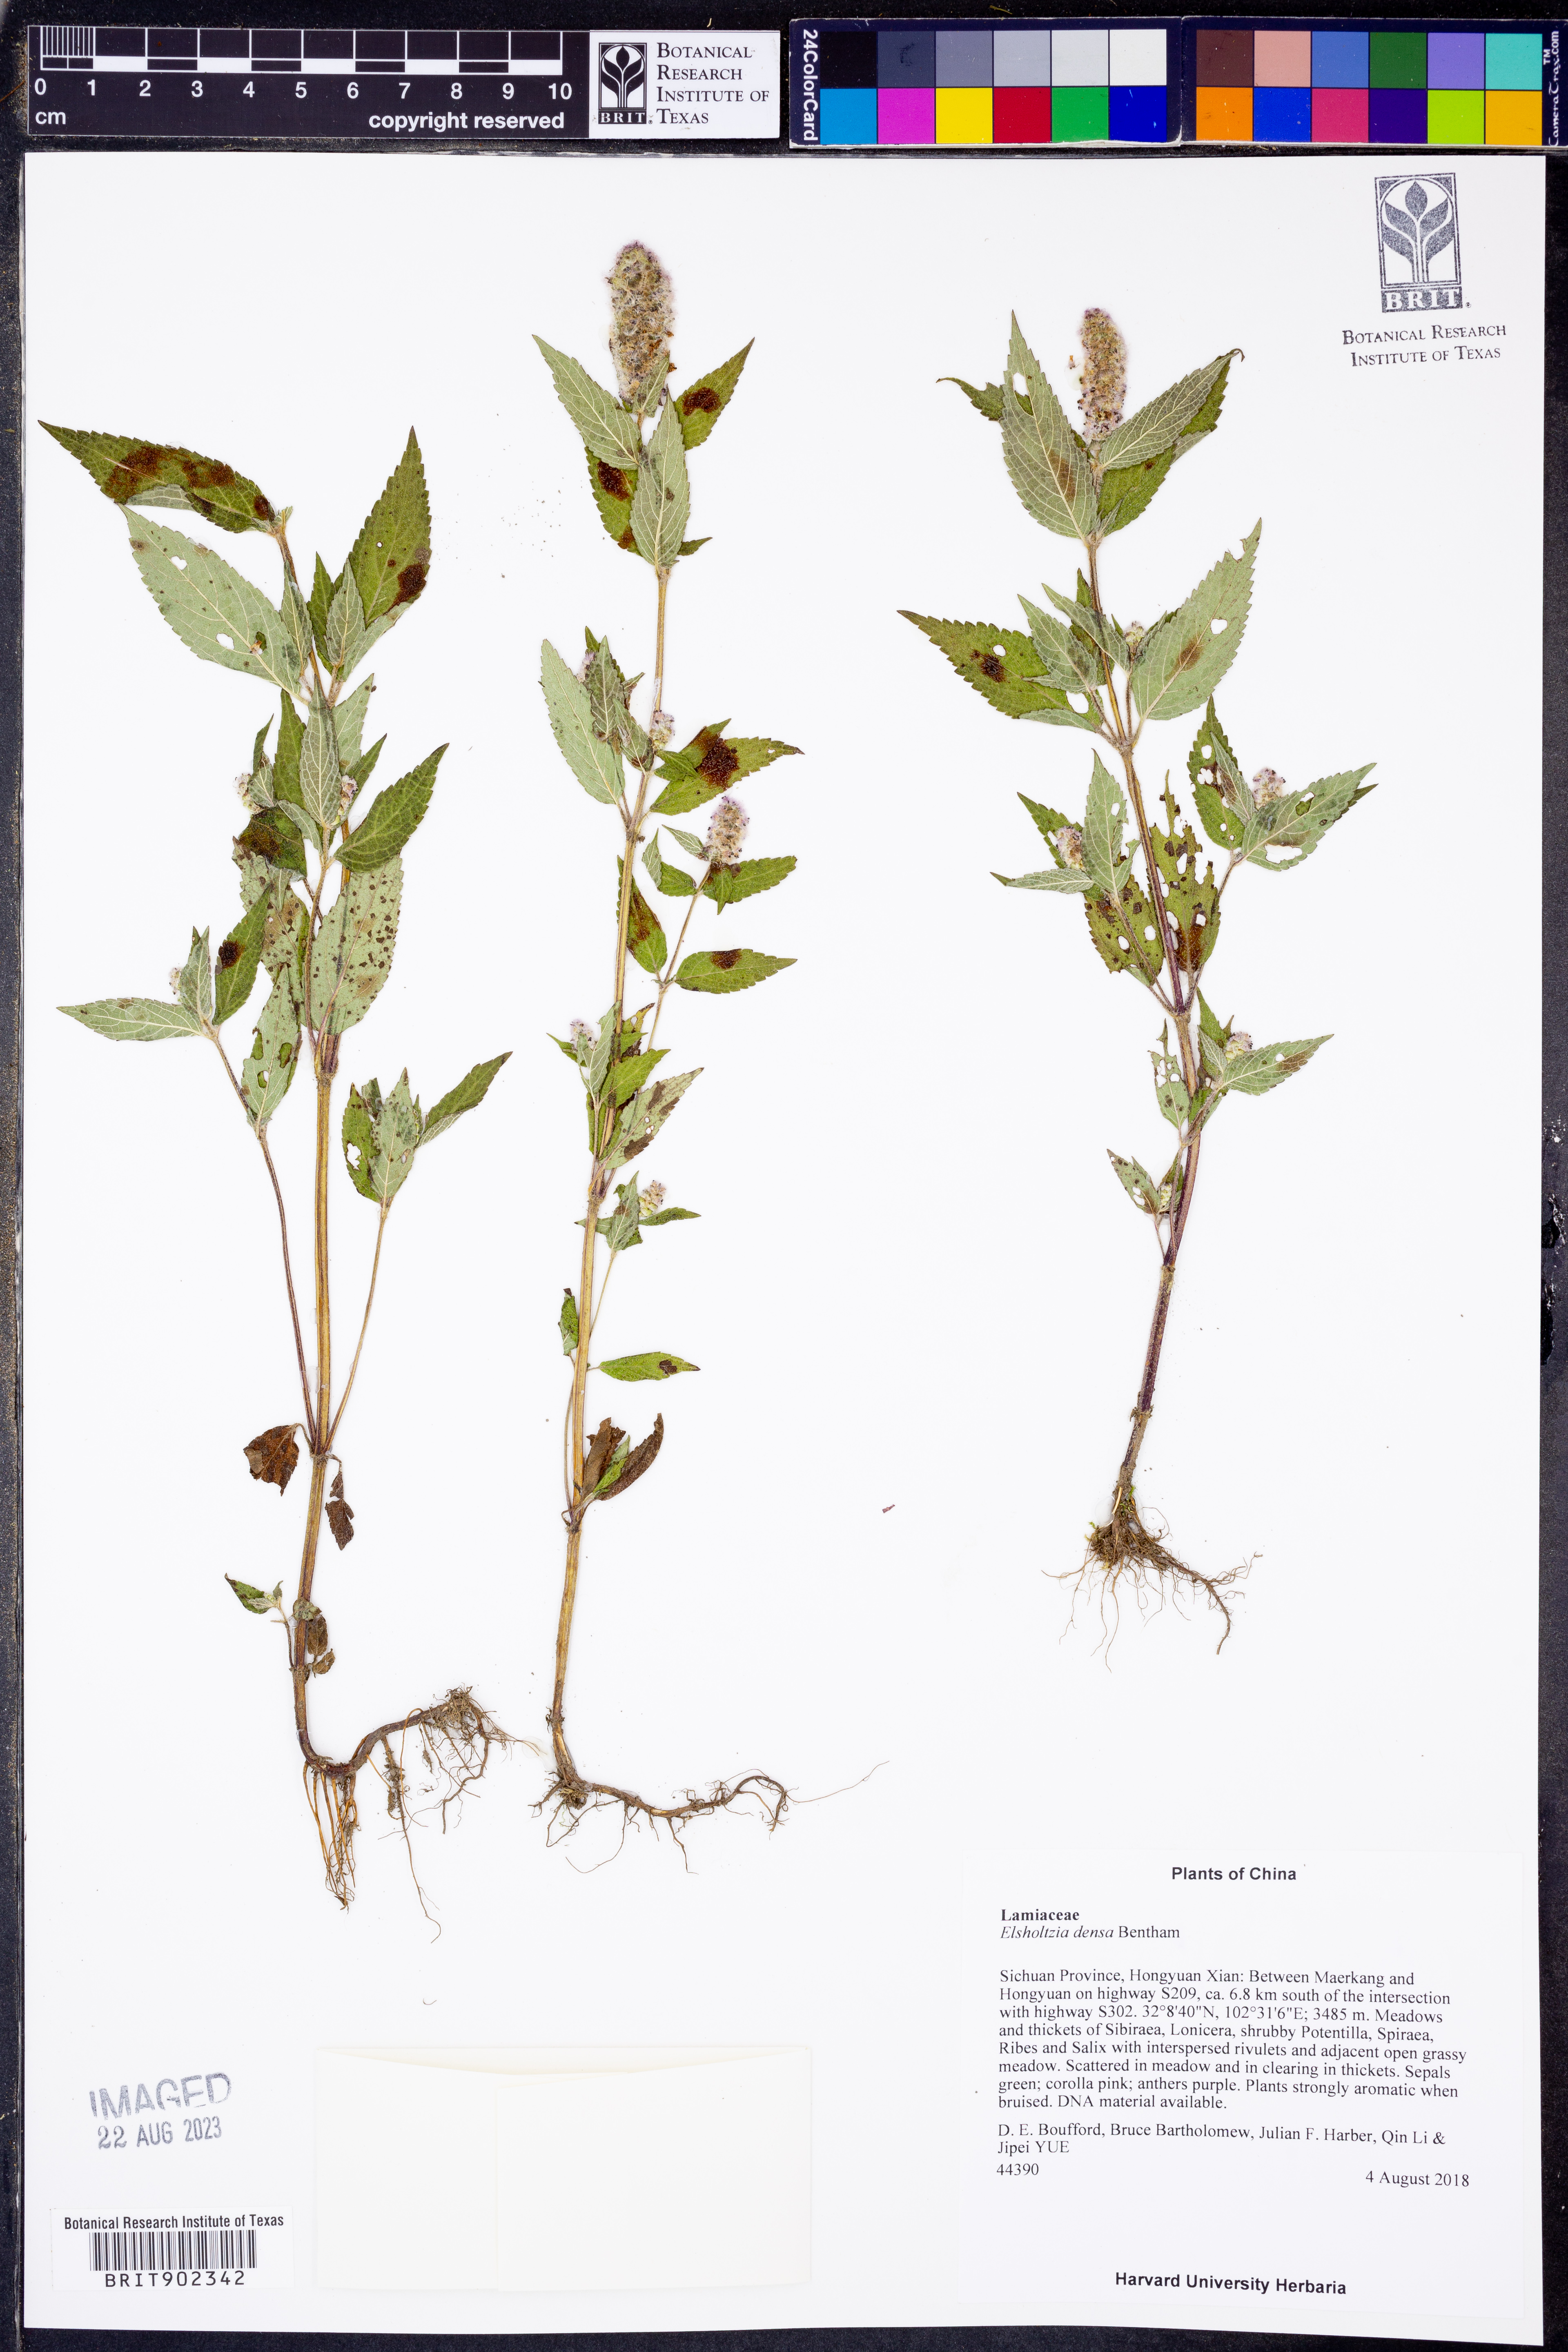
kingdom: Plantae
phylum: Tracheophyta
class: Magnoliopsida
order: Lamiales
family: Lamiaceae
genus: Elsholtzia
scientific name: Elsholtzia densa
